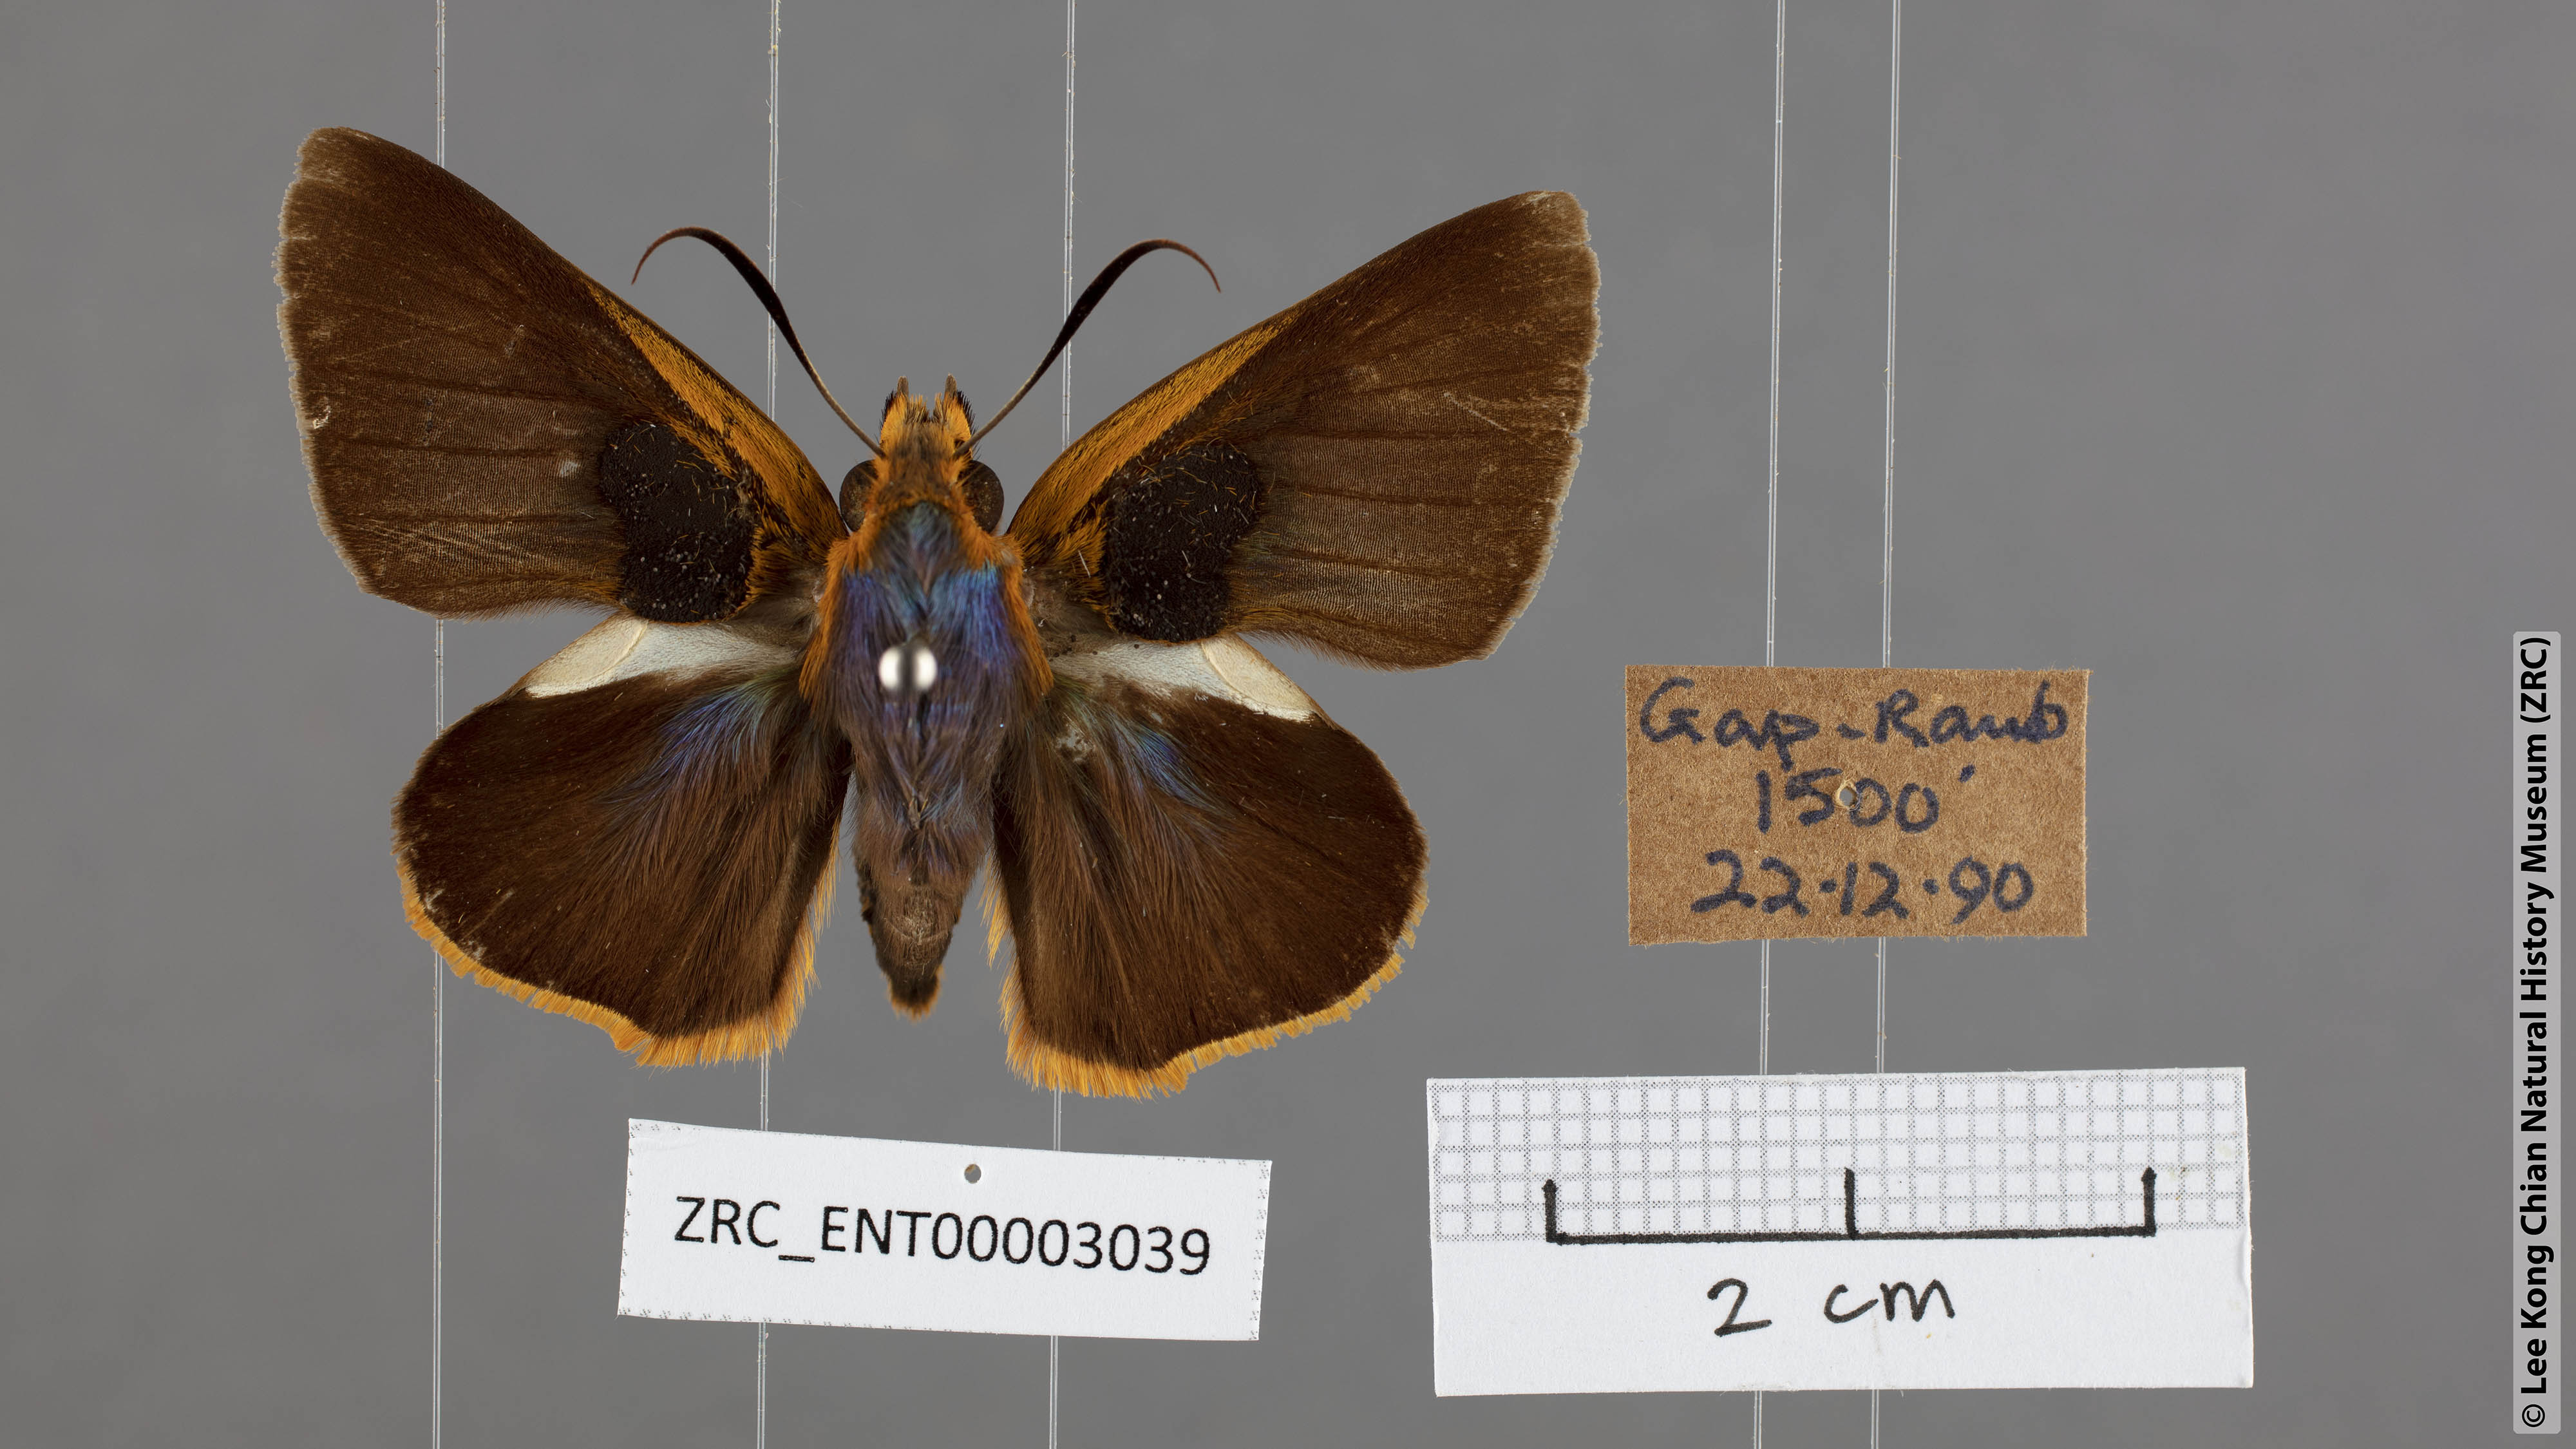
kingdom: Animalia
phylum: Arthropoda
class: Insecta
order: Lepidoptera
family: Hesperiidae
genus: Bibasis
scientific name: Bibasis Burara oedipodea
